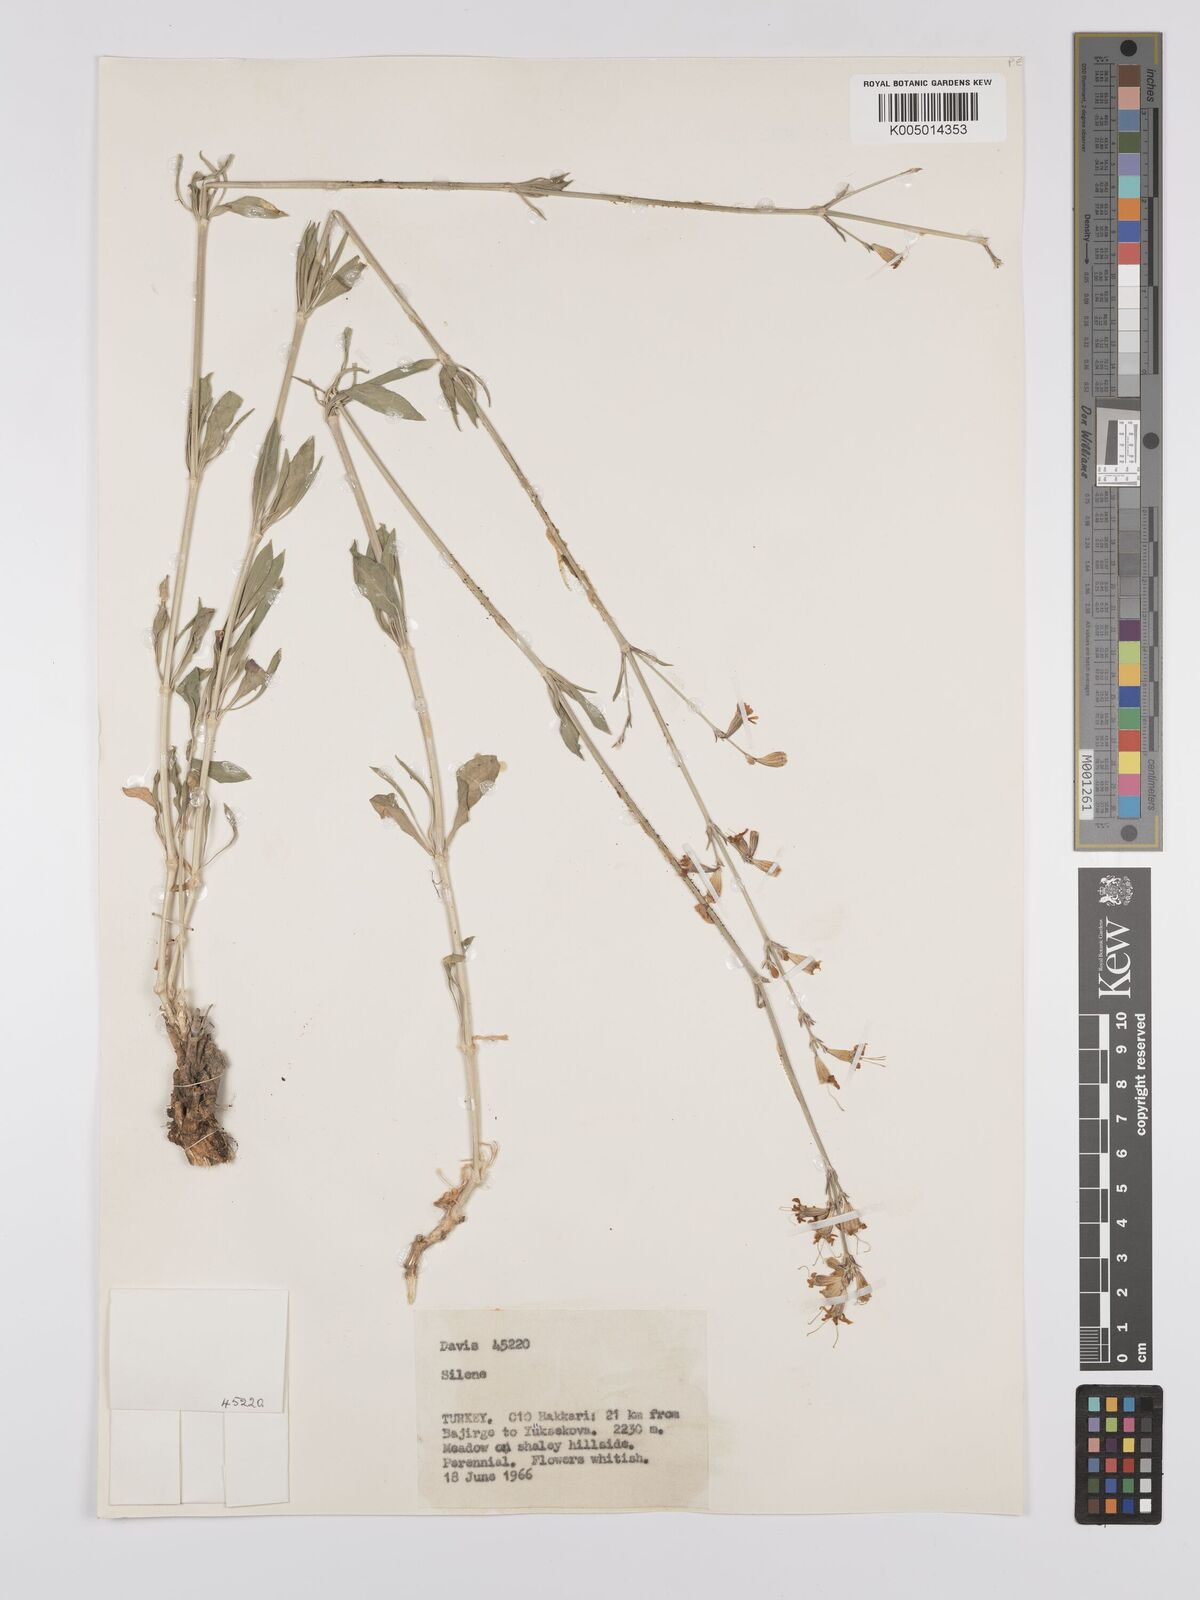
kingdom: Plantae
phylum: Tracheophyta
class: Magnoliopsida
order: Caryophyllales
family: Caryophyllaceae
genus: Silene
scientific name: Silene
